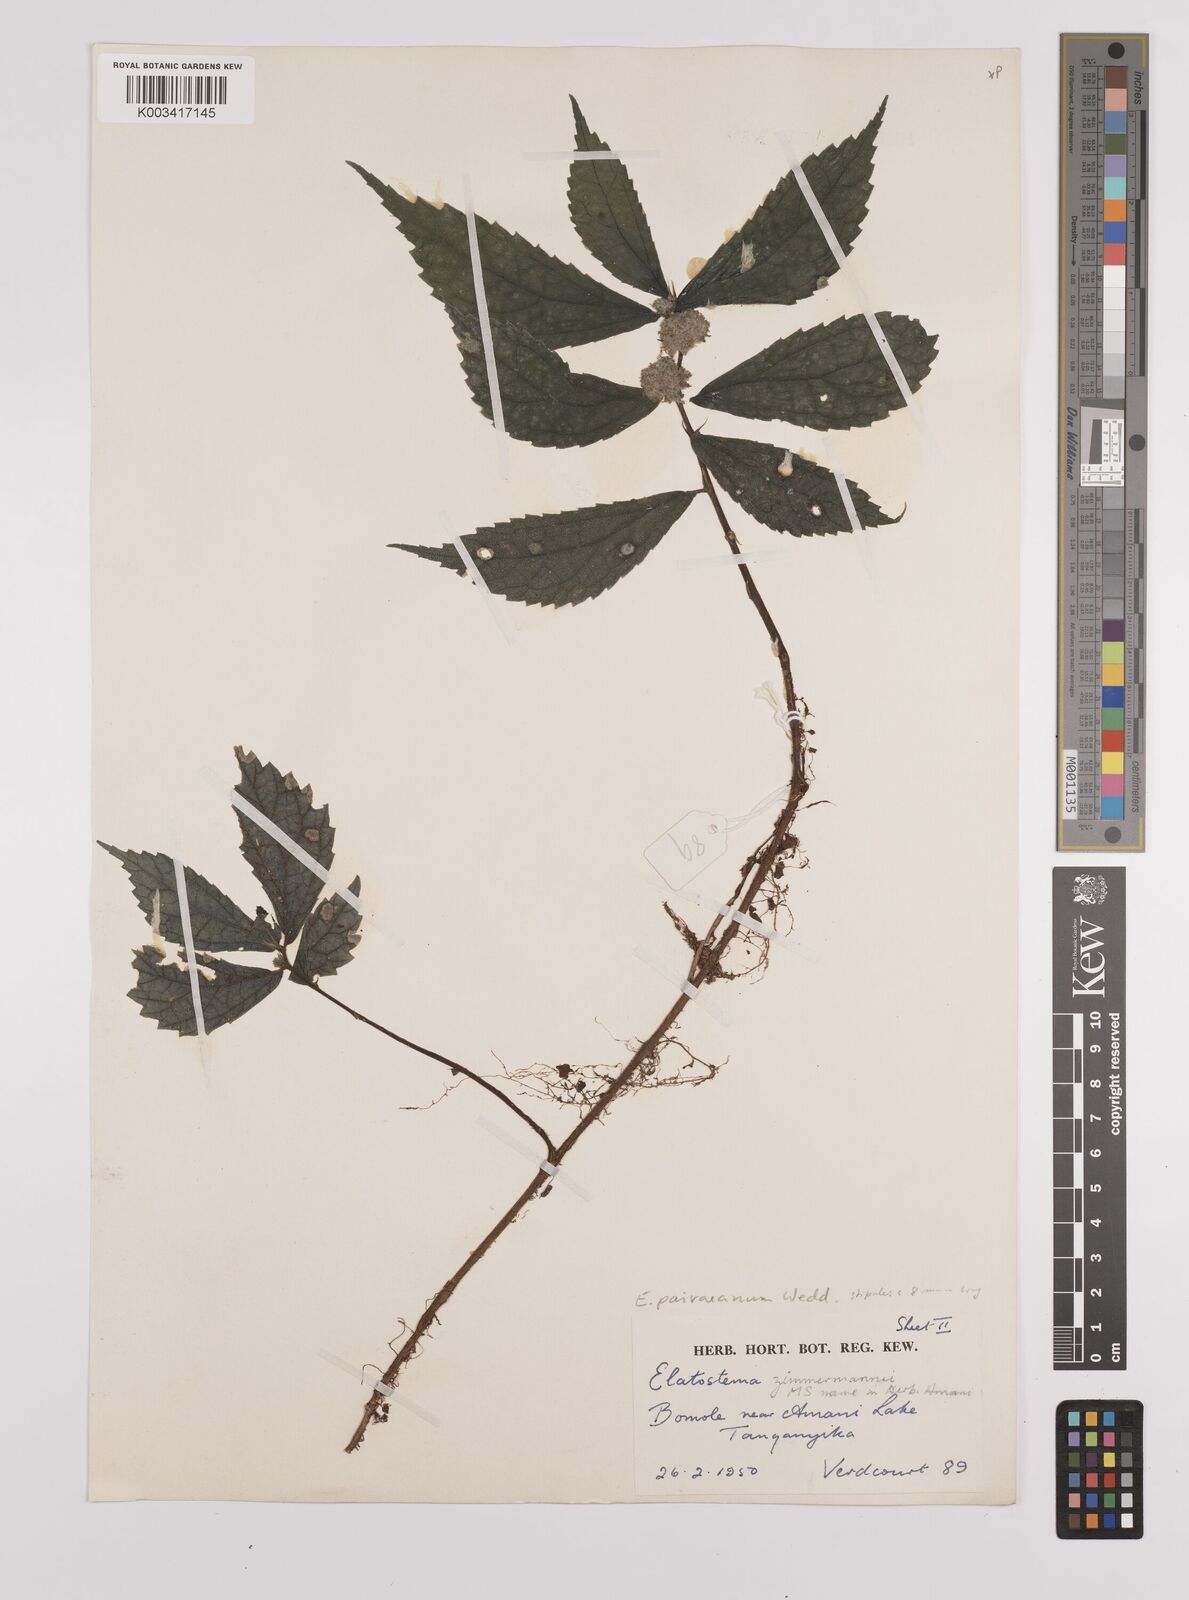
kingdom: Plantae
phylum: Tracheophyta
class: Magnoliopsida
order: Rosales
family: Urticaceae
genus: Elatostema
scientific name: Elatostema paivaeanum
